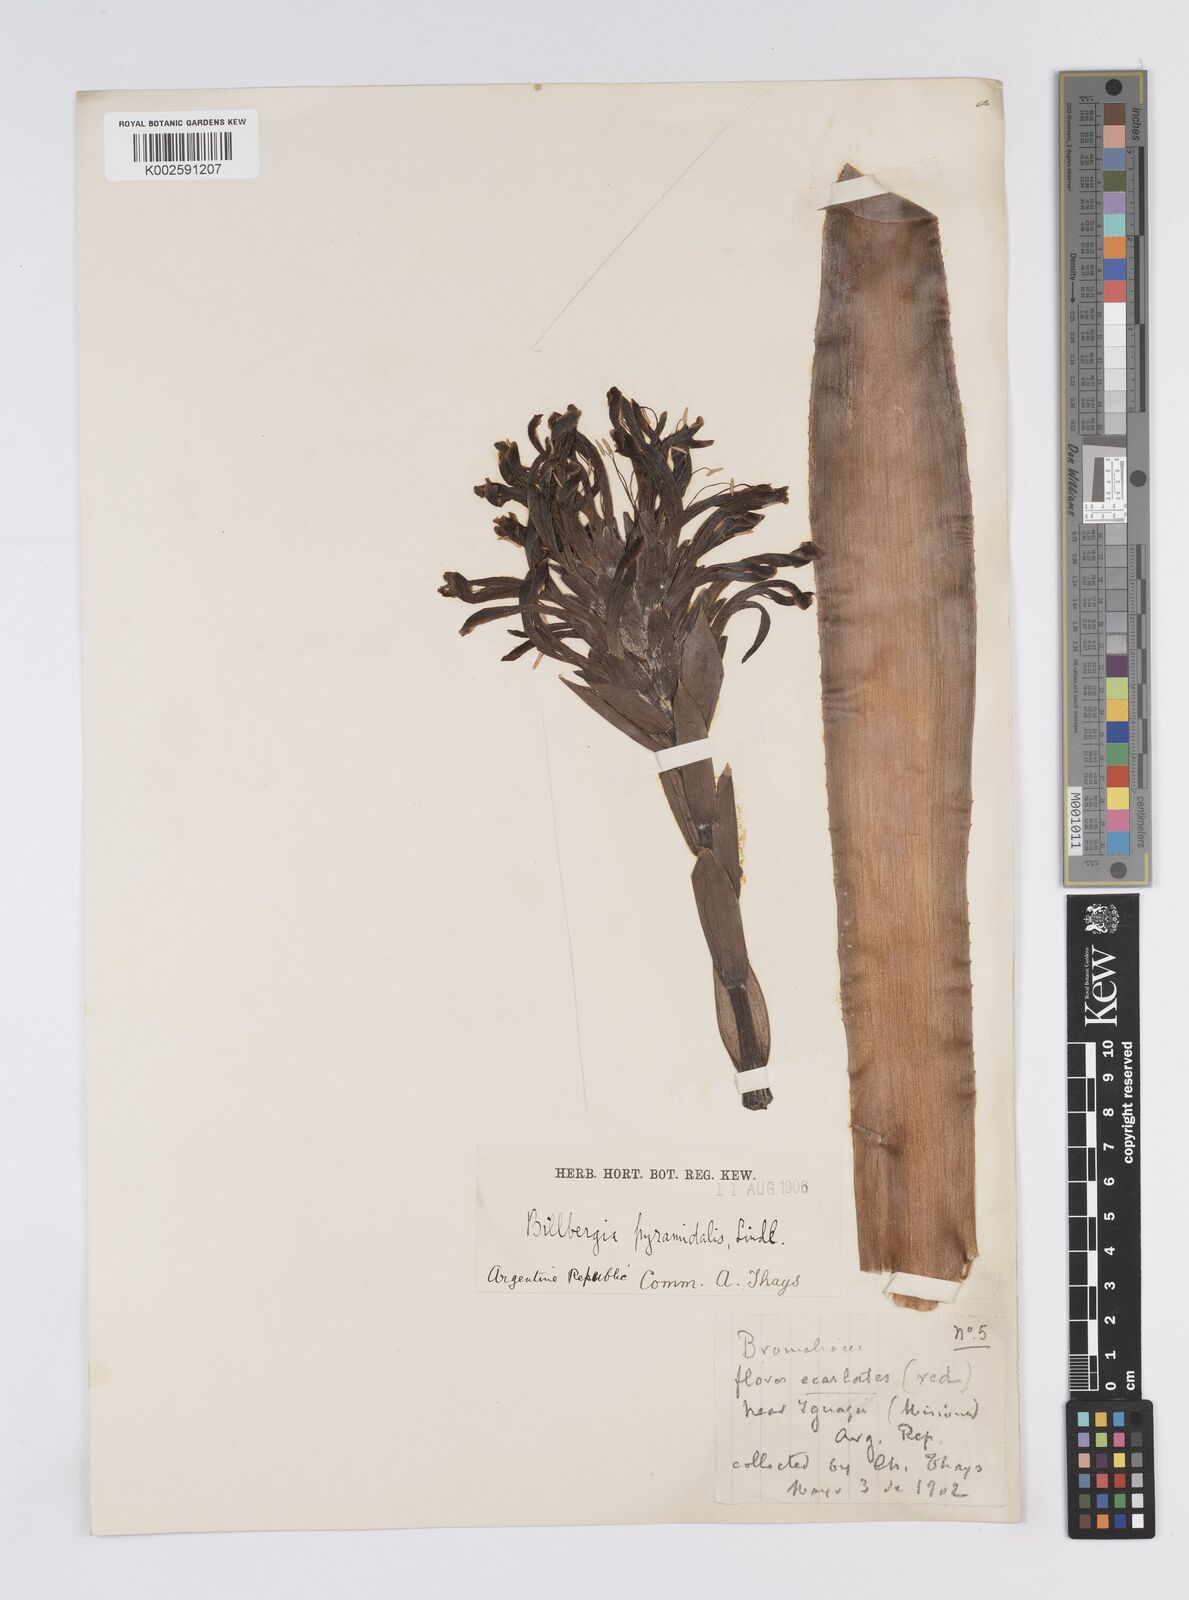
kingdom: Plantae
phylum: Tracheophyta
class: Liliopsida
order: Poales
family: Bromeliaceae
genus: Billbergia
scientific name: Billbergia pyramidalis
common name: Foolproofplant
